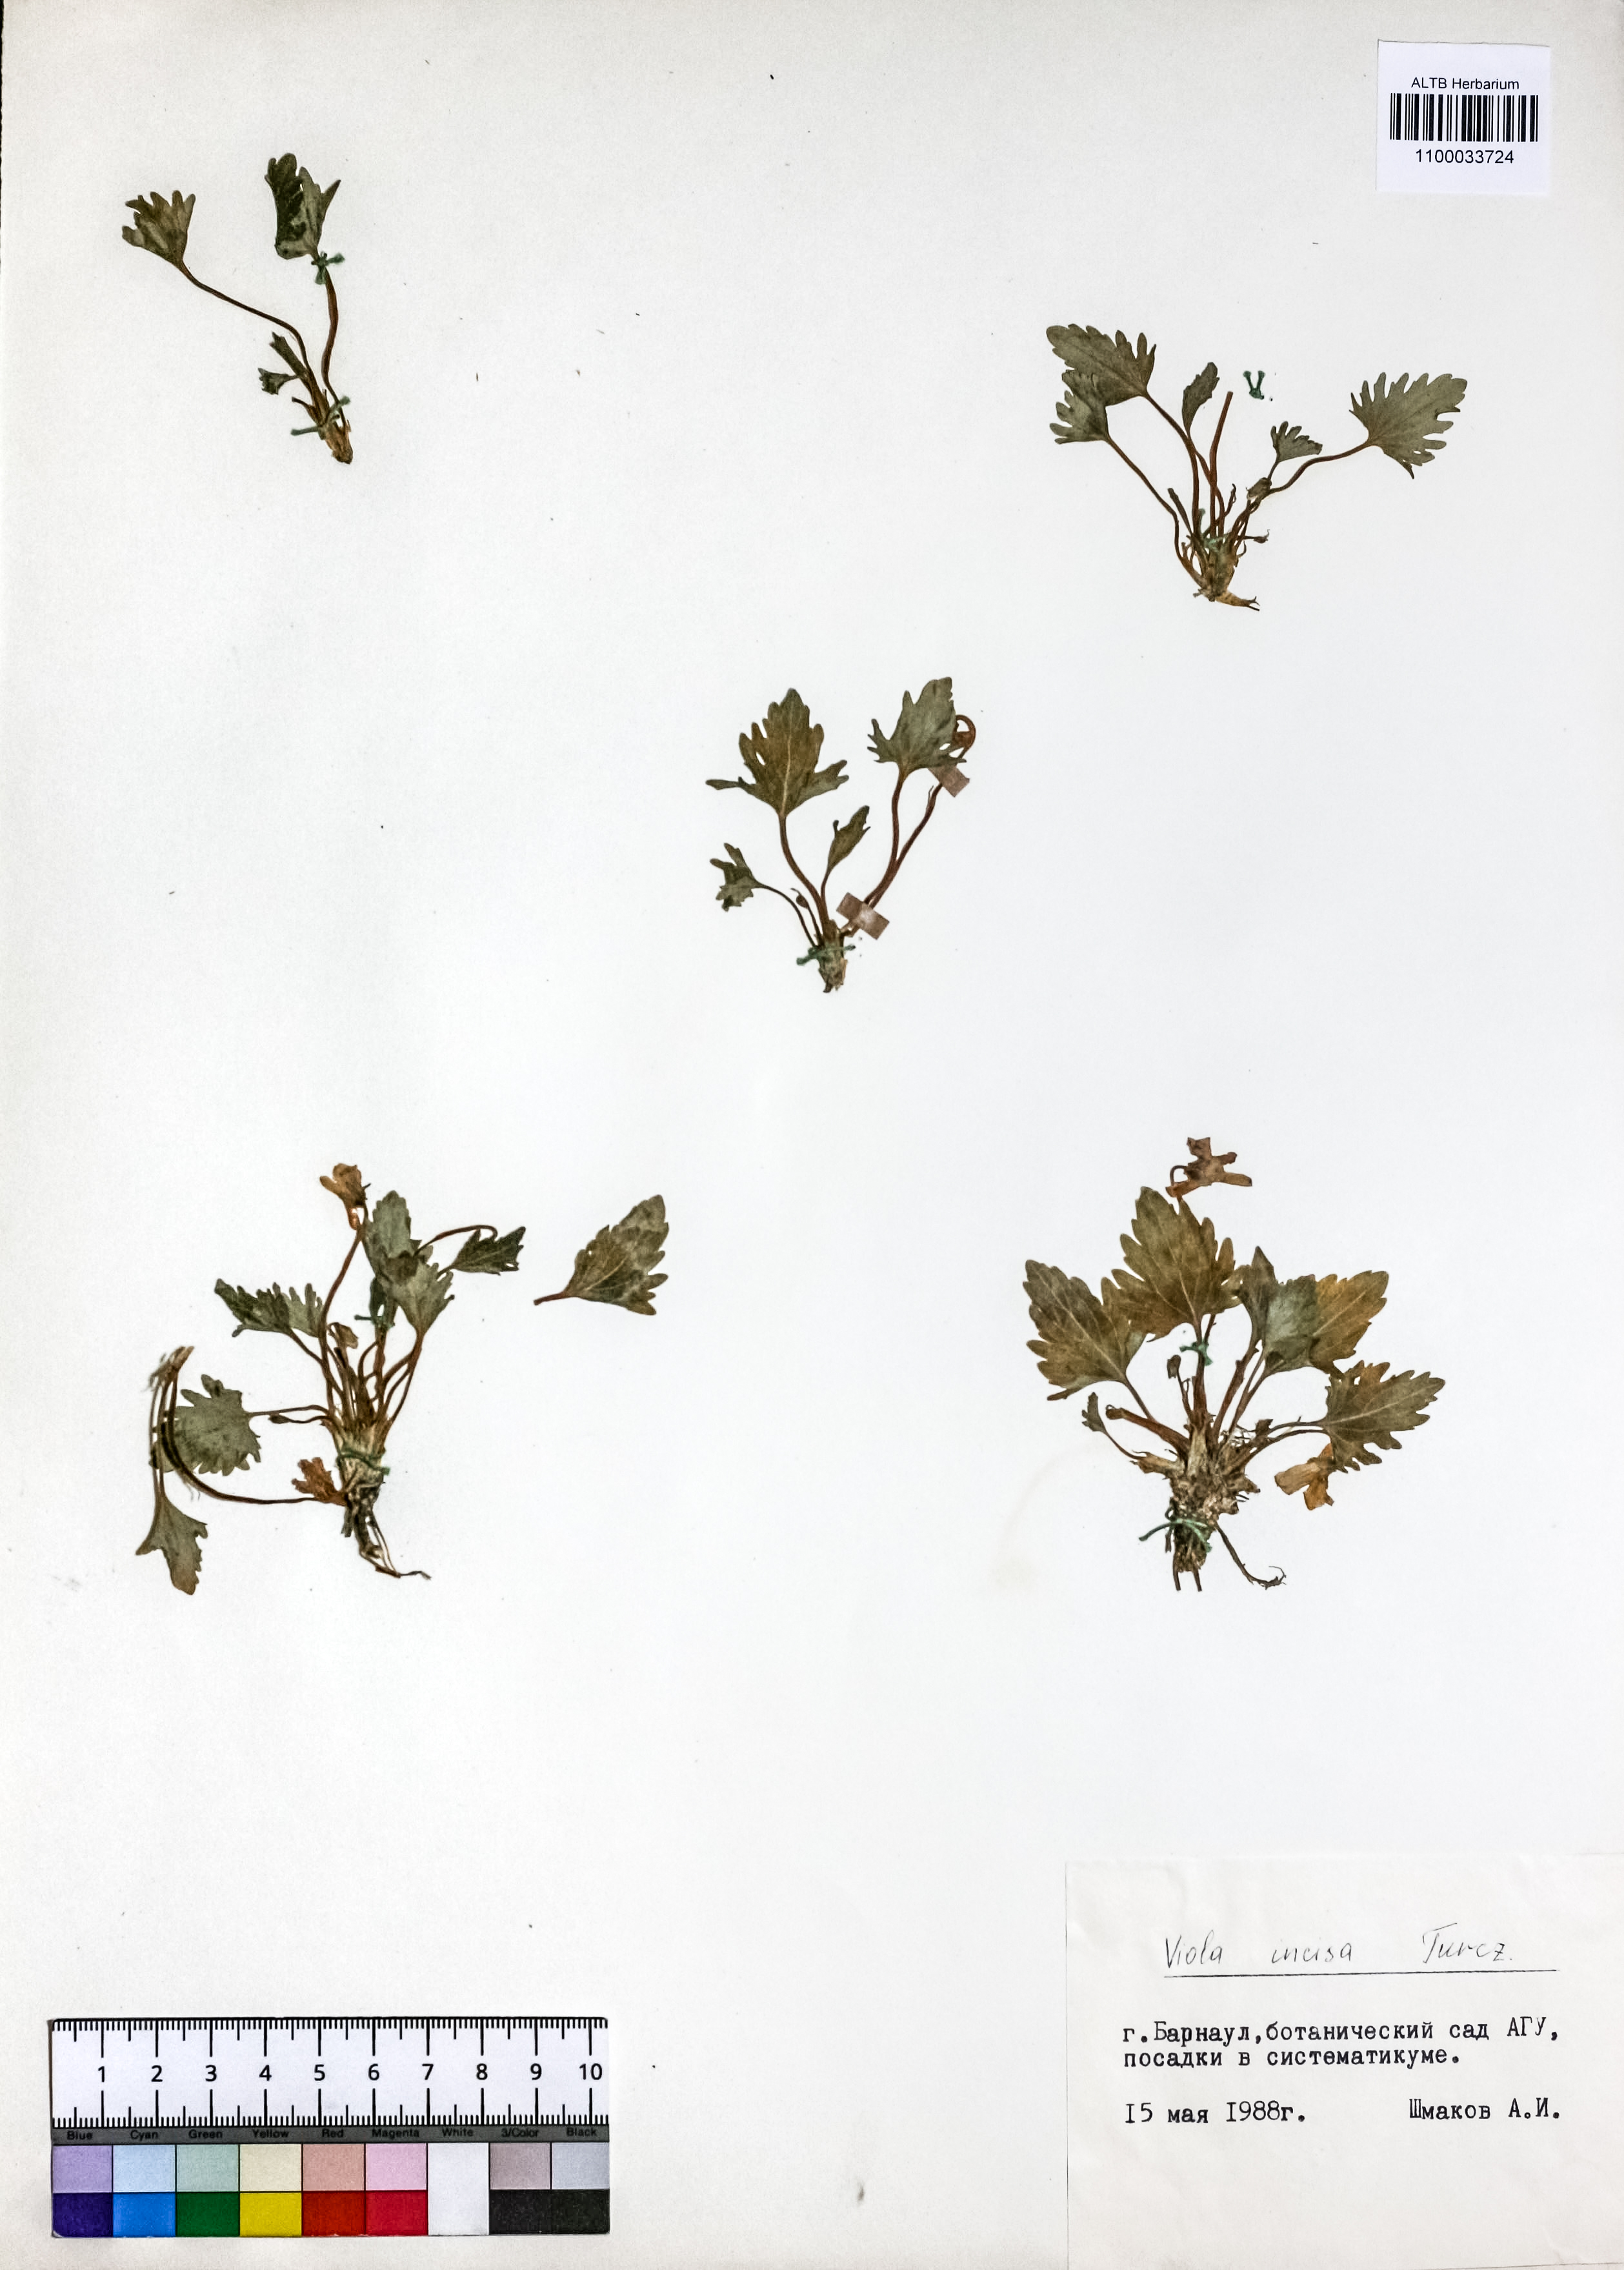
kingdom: Plantae
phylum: Tracheophyta
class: Magnoliopsida
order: Malpighiales
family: Violaceae
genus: Viola
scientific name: Viola incisa
